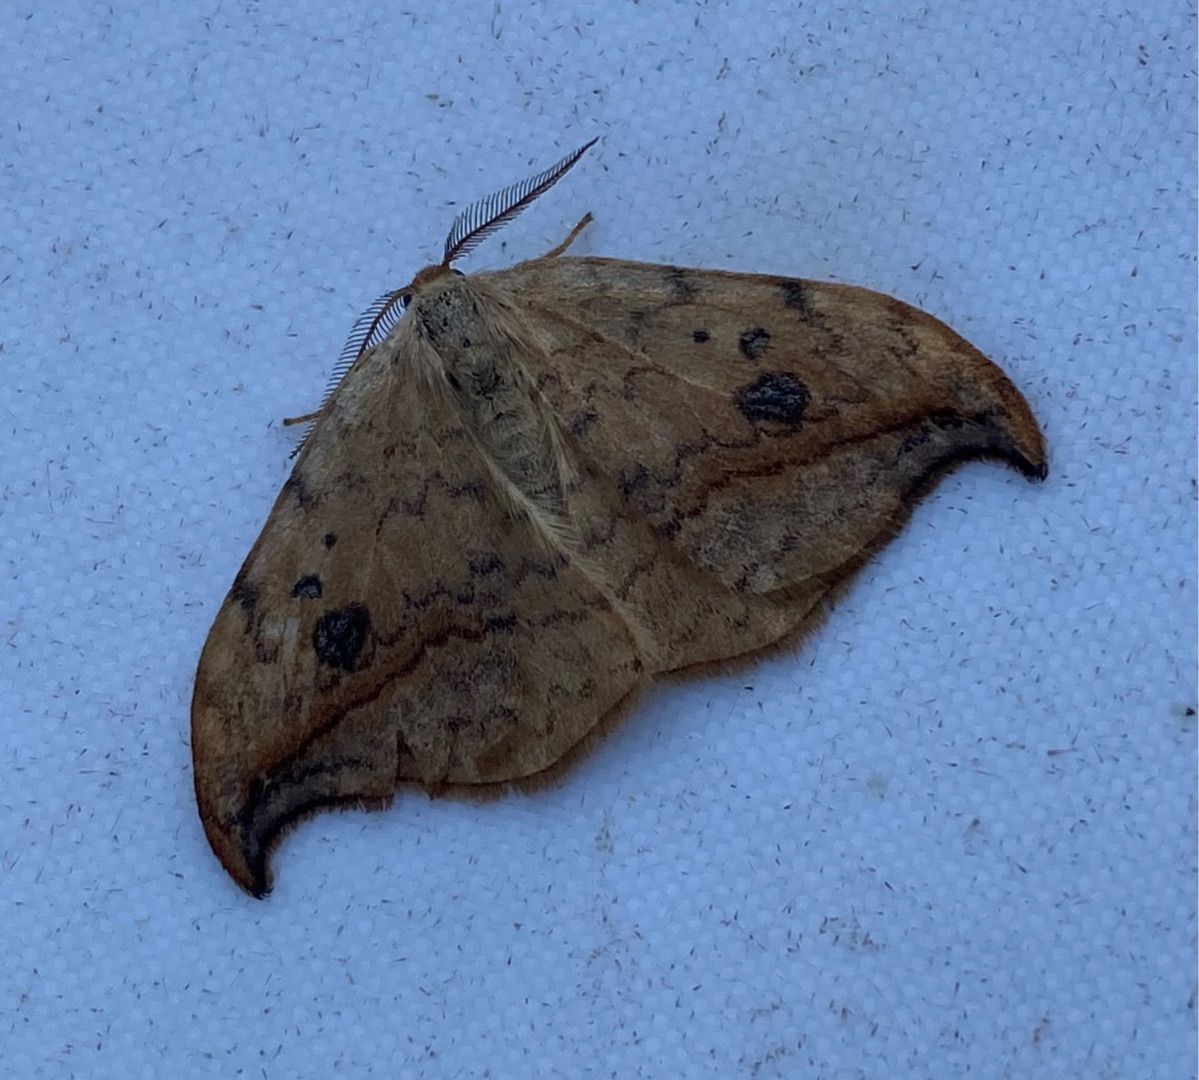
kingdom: Animalia
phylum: Arthropoda
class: Insecta
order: Lepidoptera
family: Drepanidae
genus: Drepana
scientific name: Drepana falcataria
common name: Birkeseglvinge
